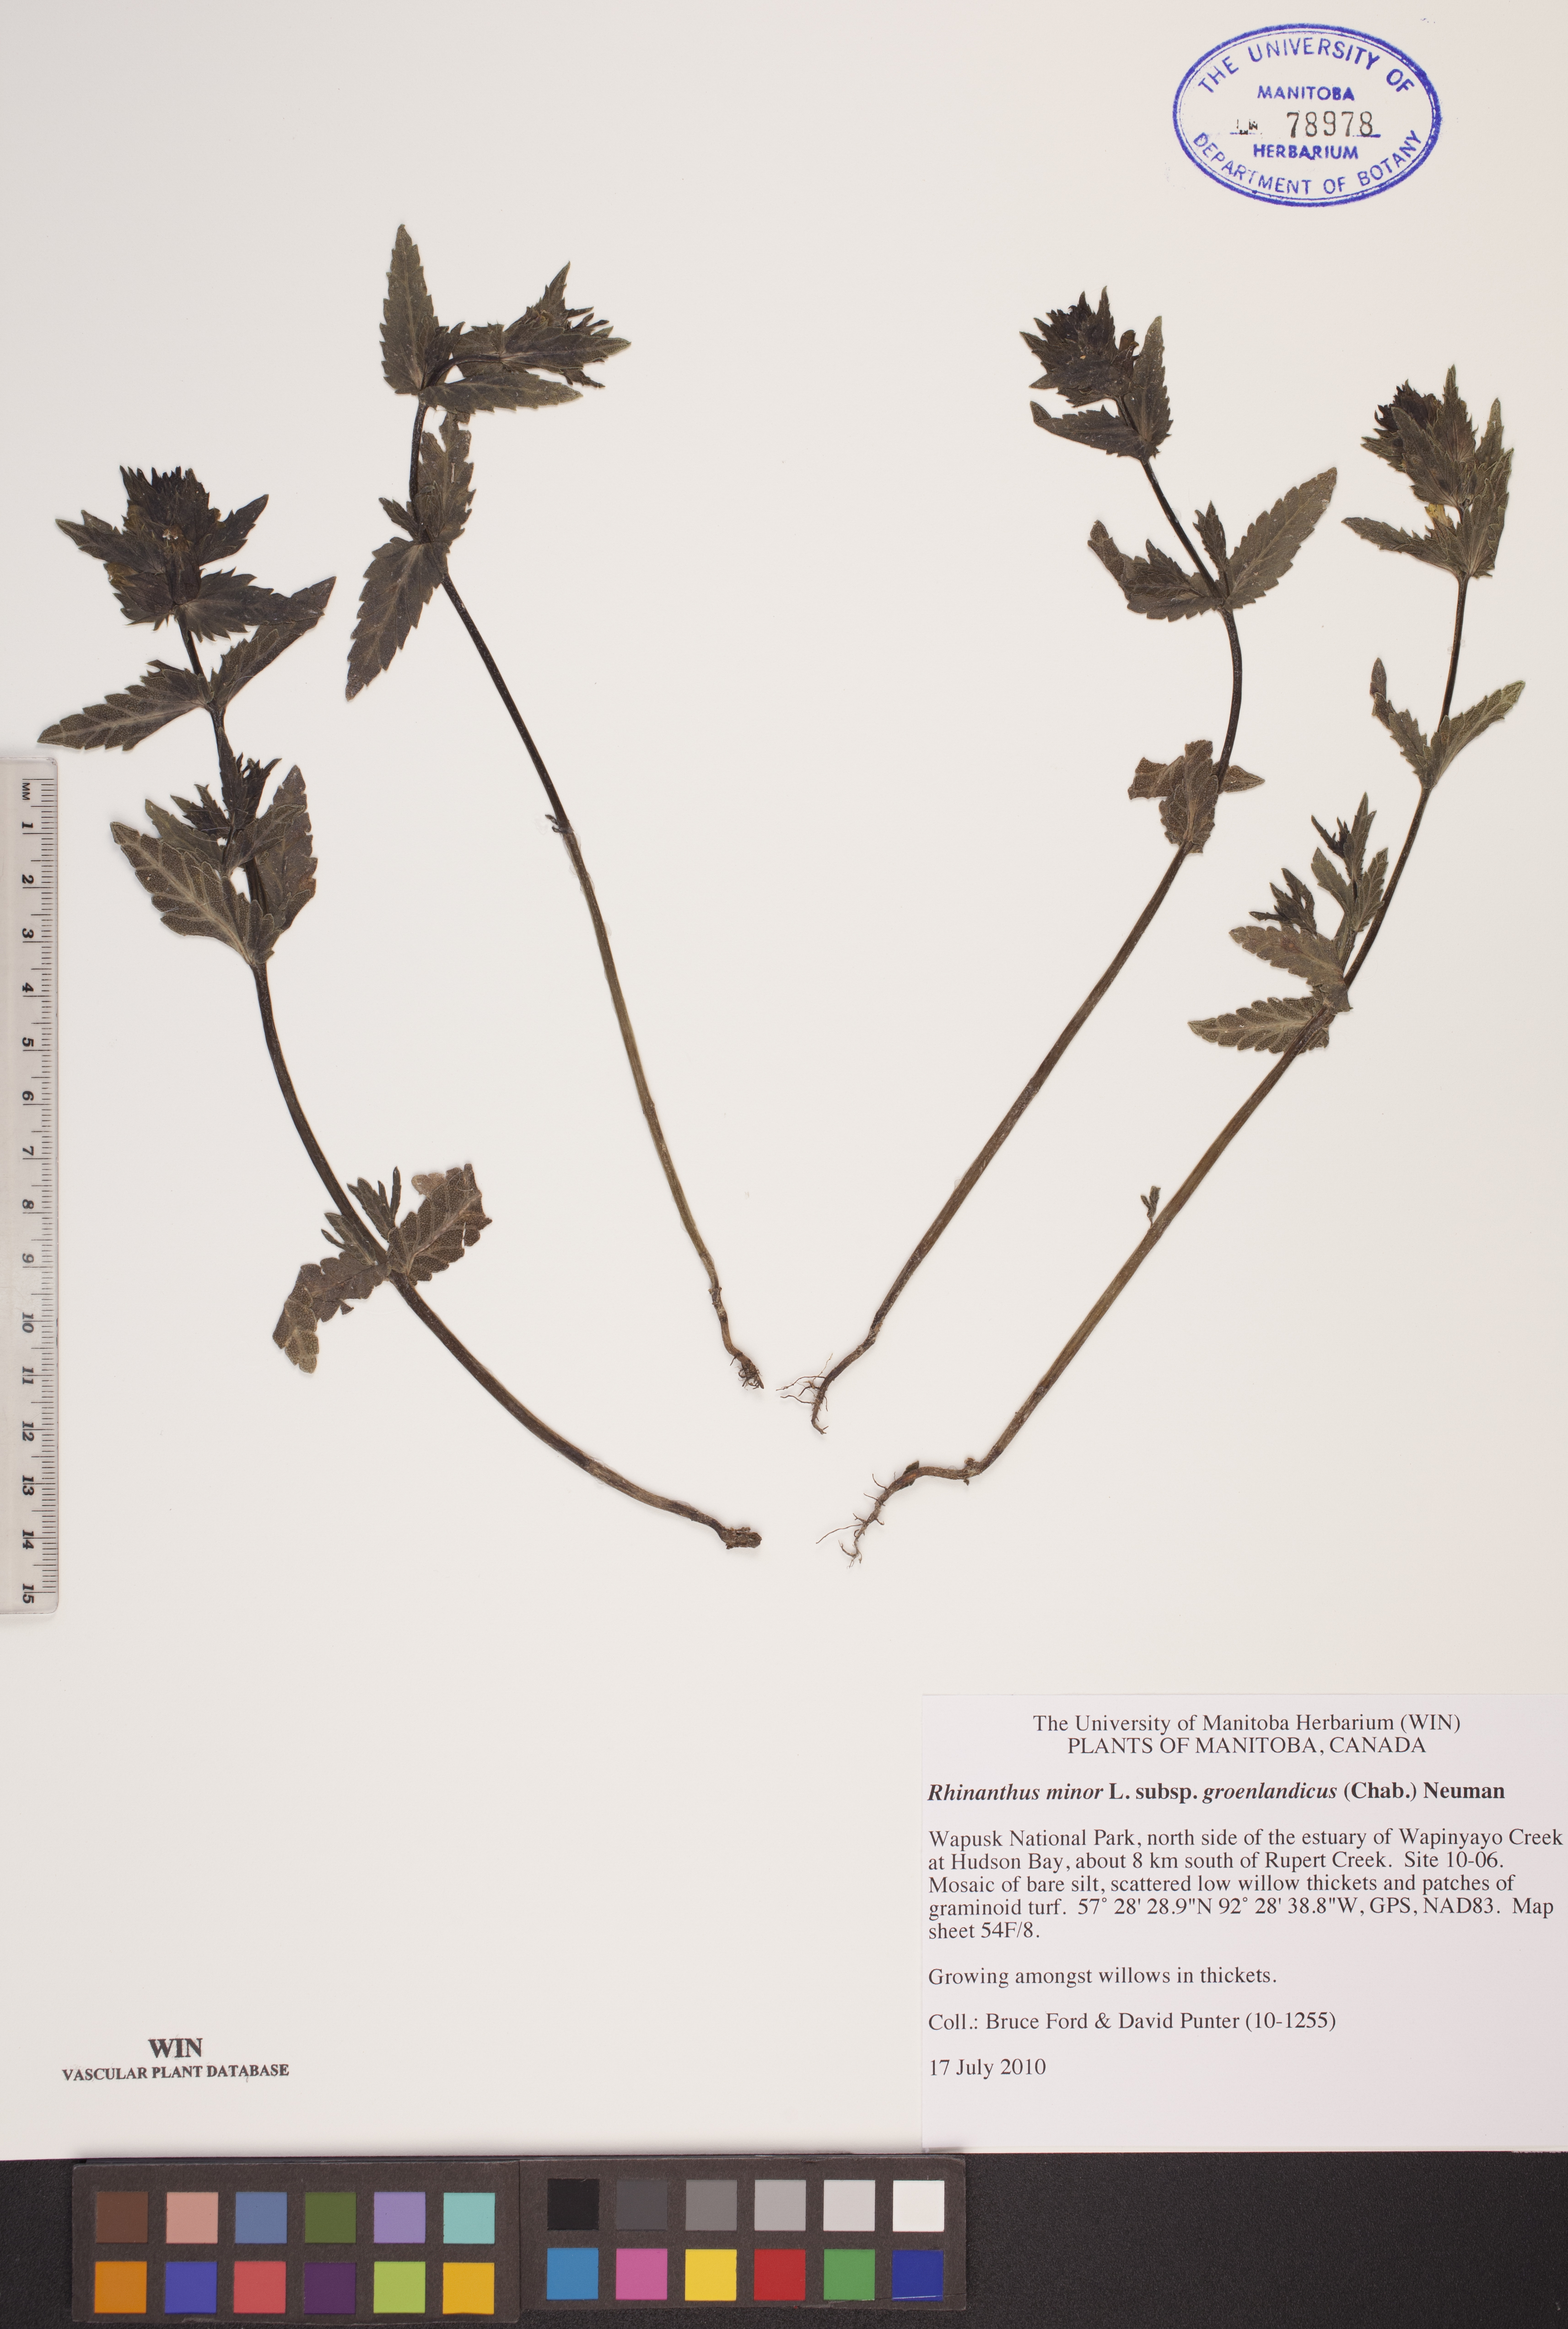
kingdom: Plantae
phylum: Tracheophyta
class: Magnoliopsida
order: Lamiales
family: Orobanchaceae
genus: Rhinanthus
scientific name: Rhinanthus groenlandicus
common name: Little yellow rattle
